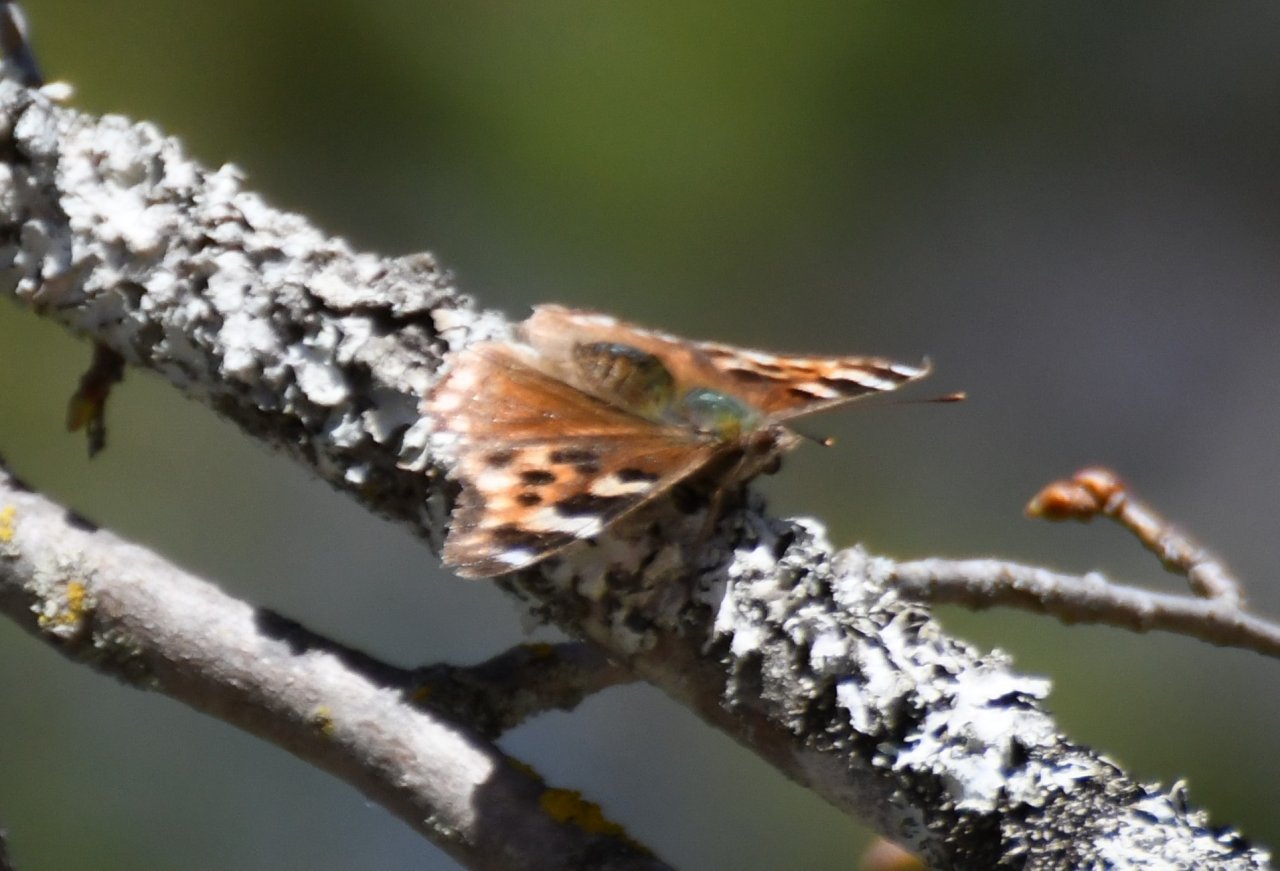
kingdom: Animalia
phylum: Arthropoda
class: Insecta
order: Lepidoptera
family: Nymphalidae
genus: Polygonia
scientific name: Polygonia vaualbum
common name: Compton Tortoiseshell
